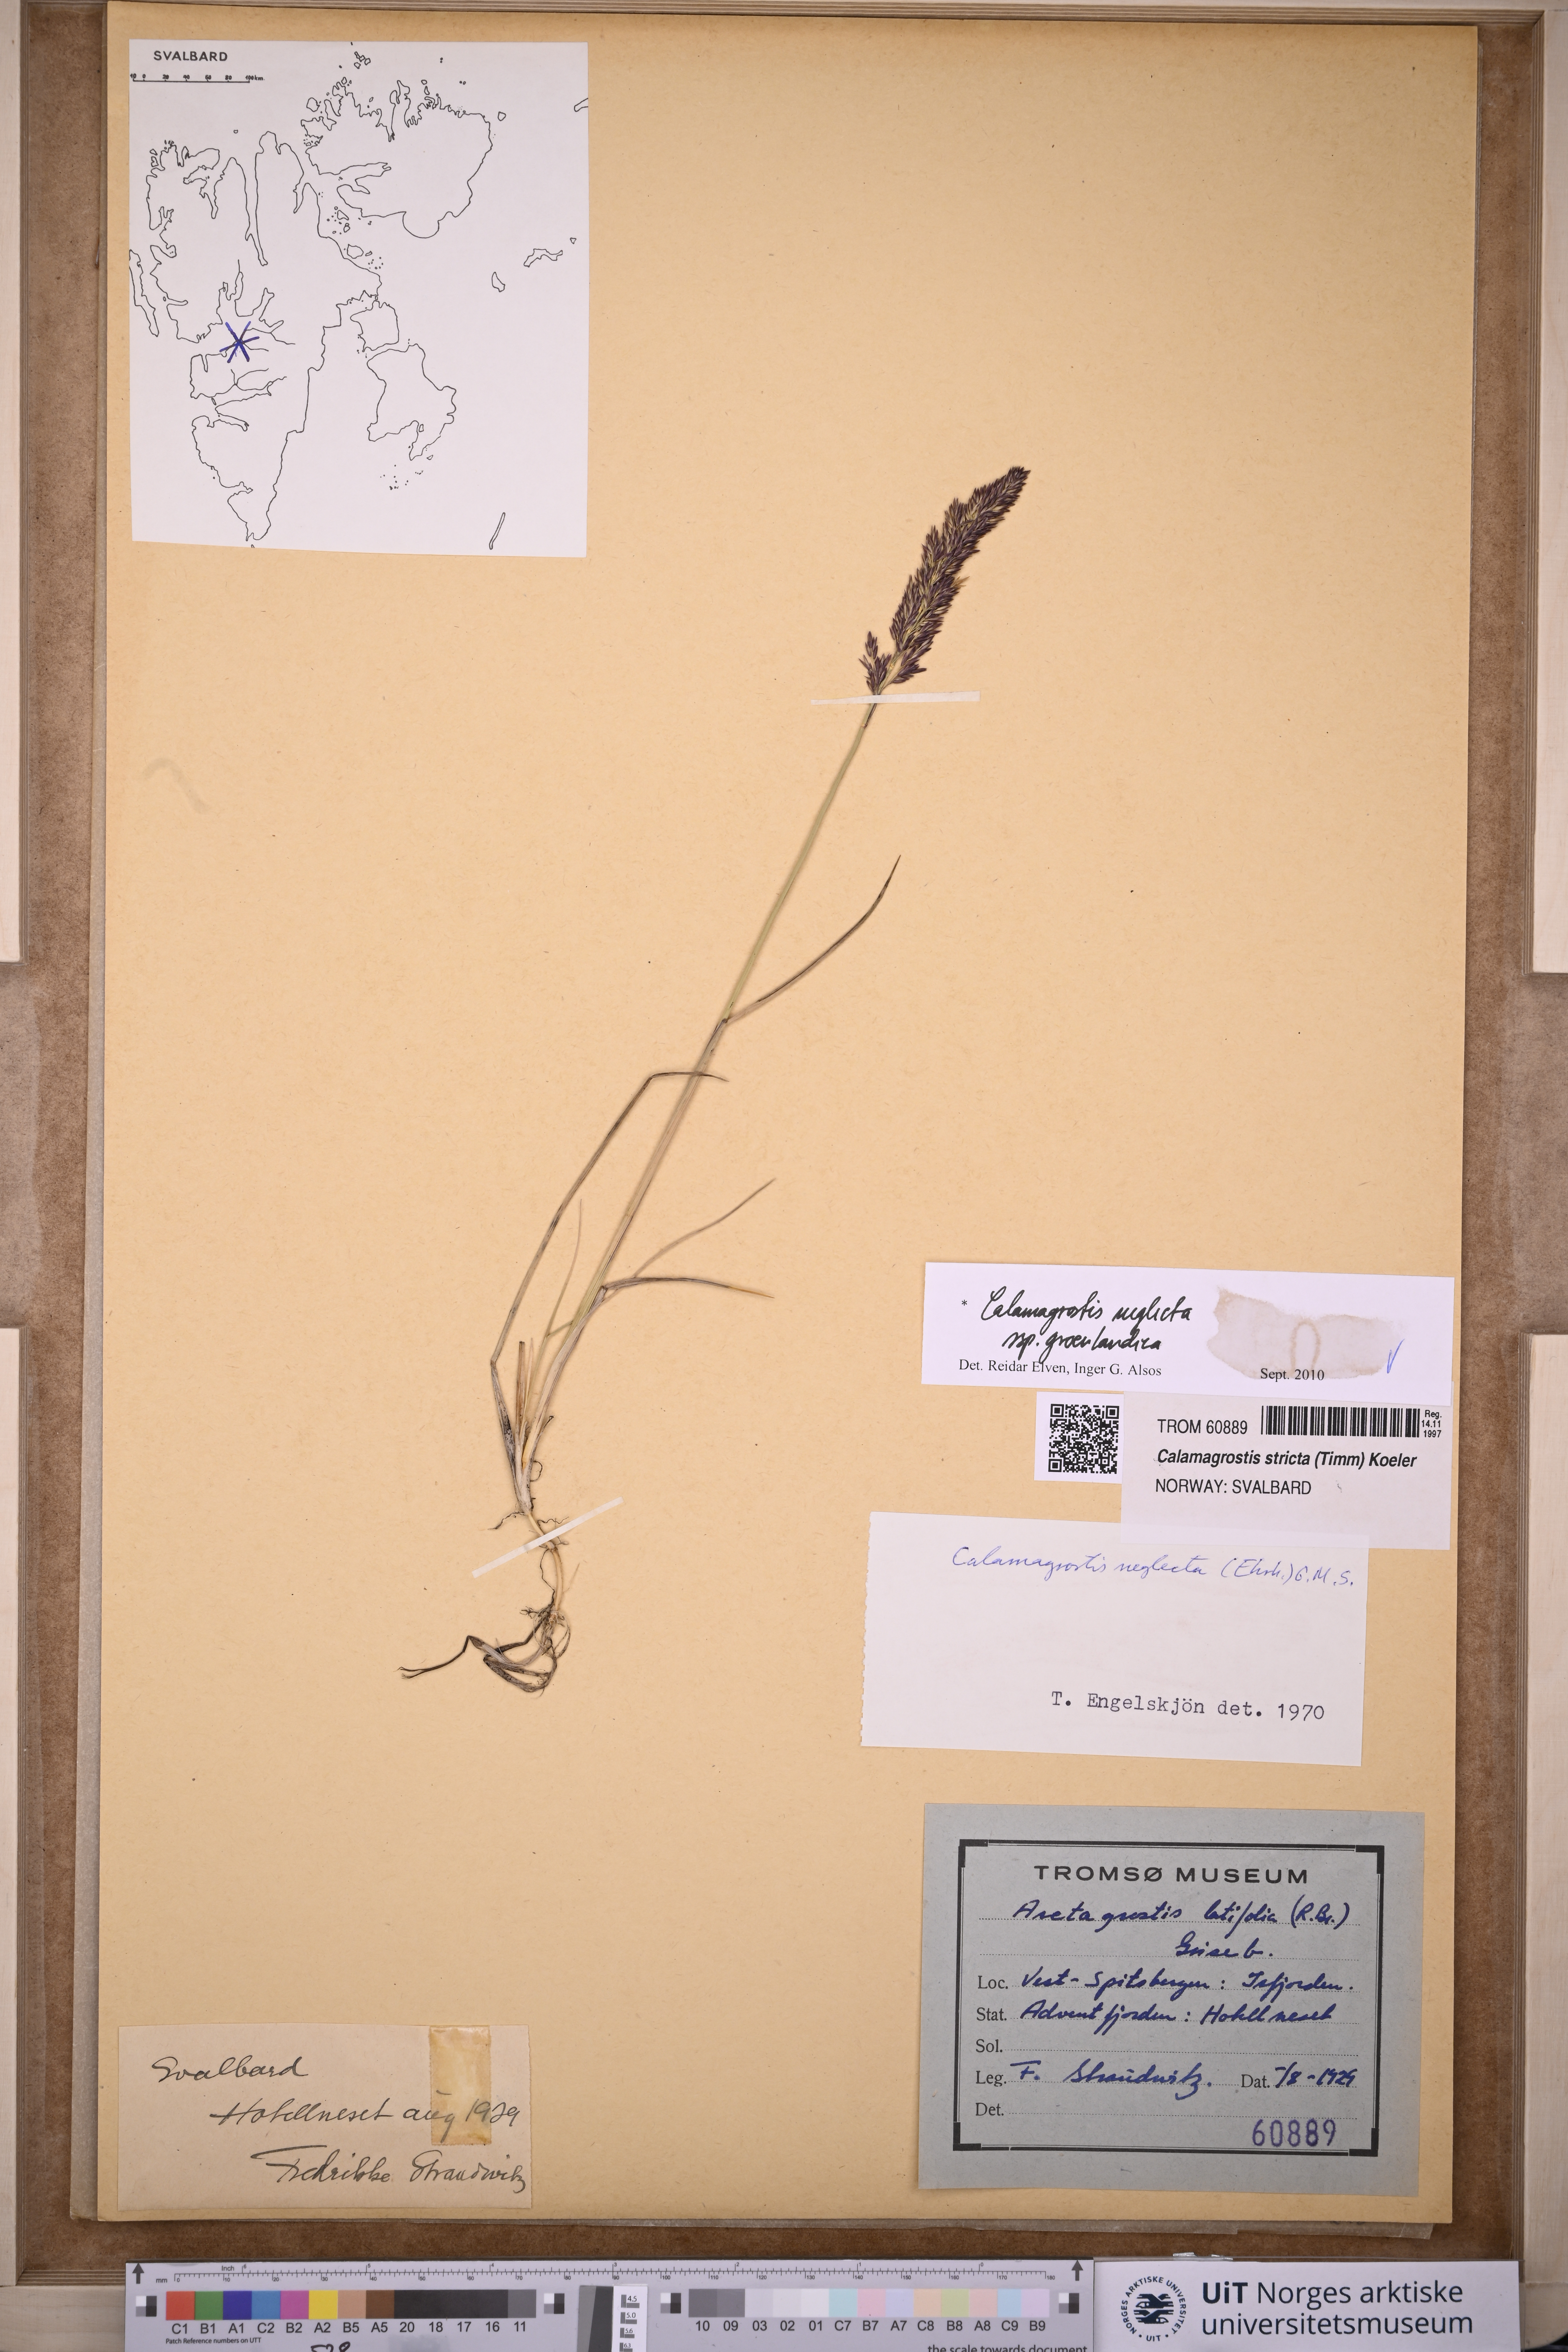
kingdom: Plantae
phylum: Tracheophyta
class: Liliopsida
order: Poales
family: Poaceae
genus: Calamagrostis
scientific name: Calamagrostis stricta
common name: Narrow small-reed
